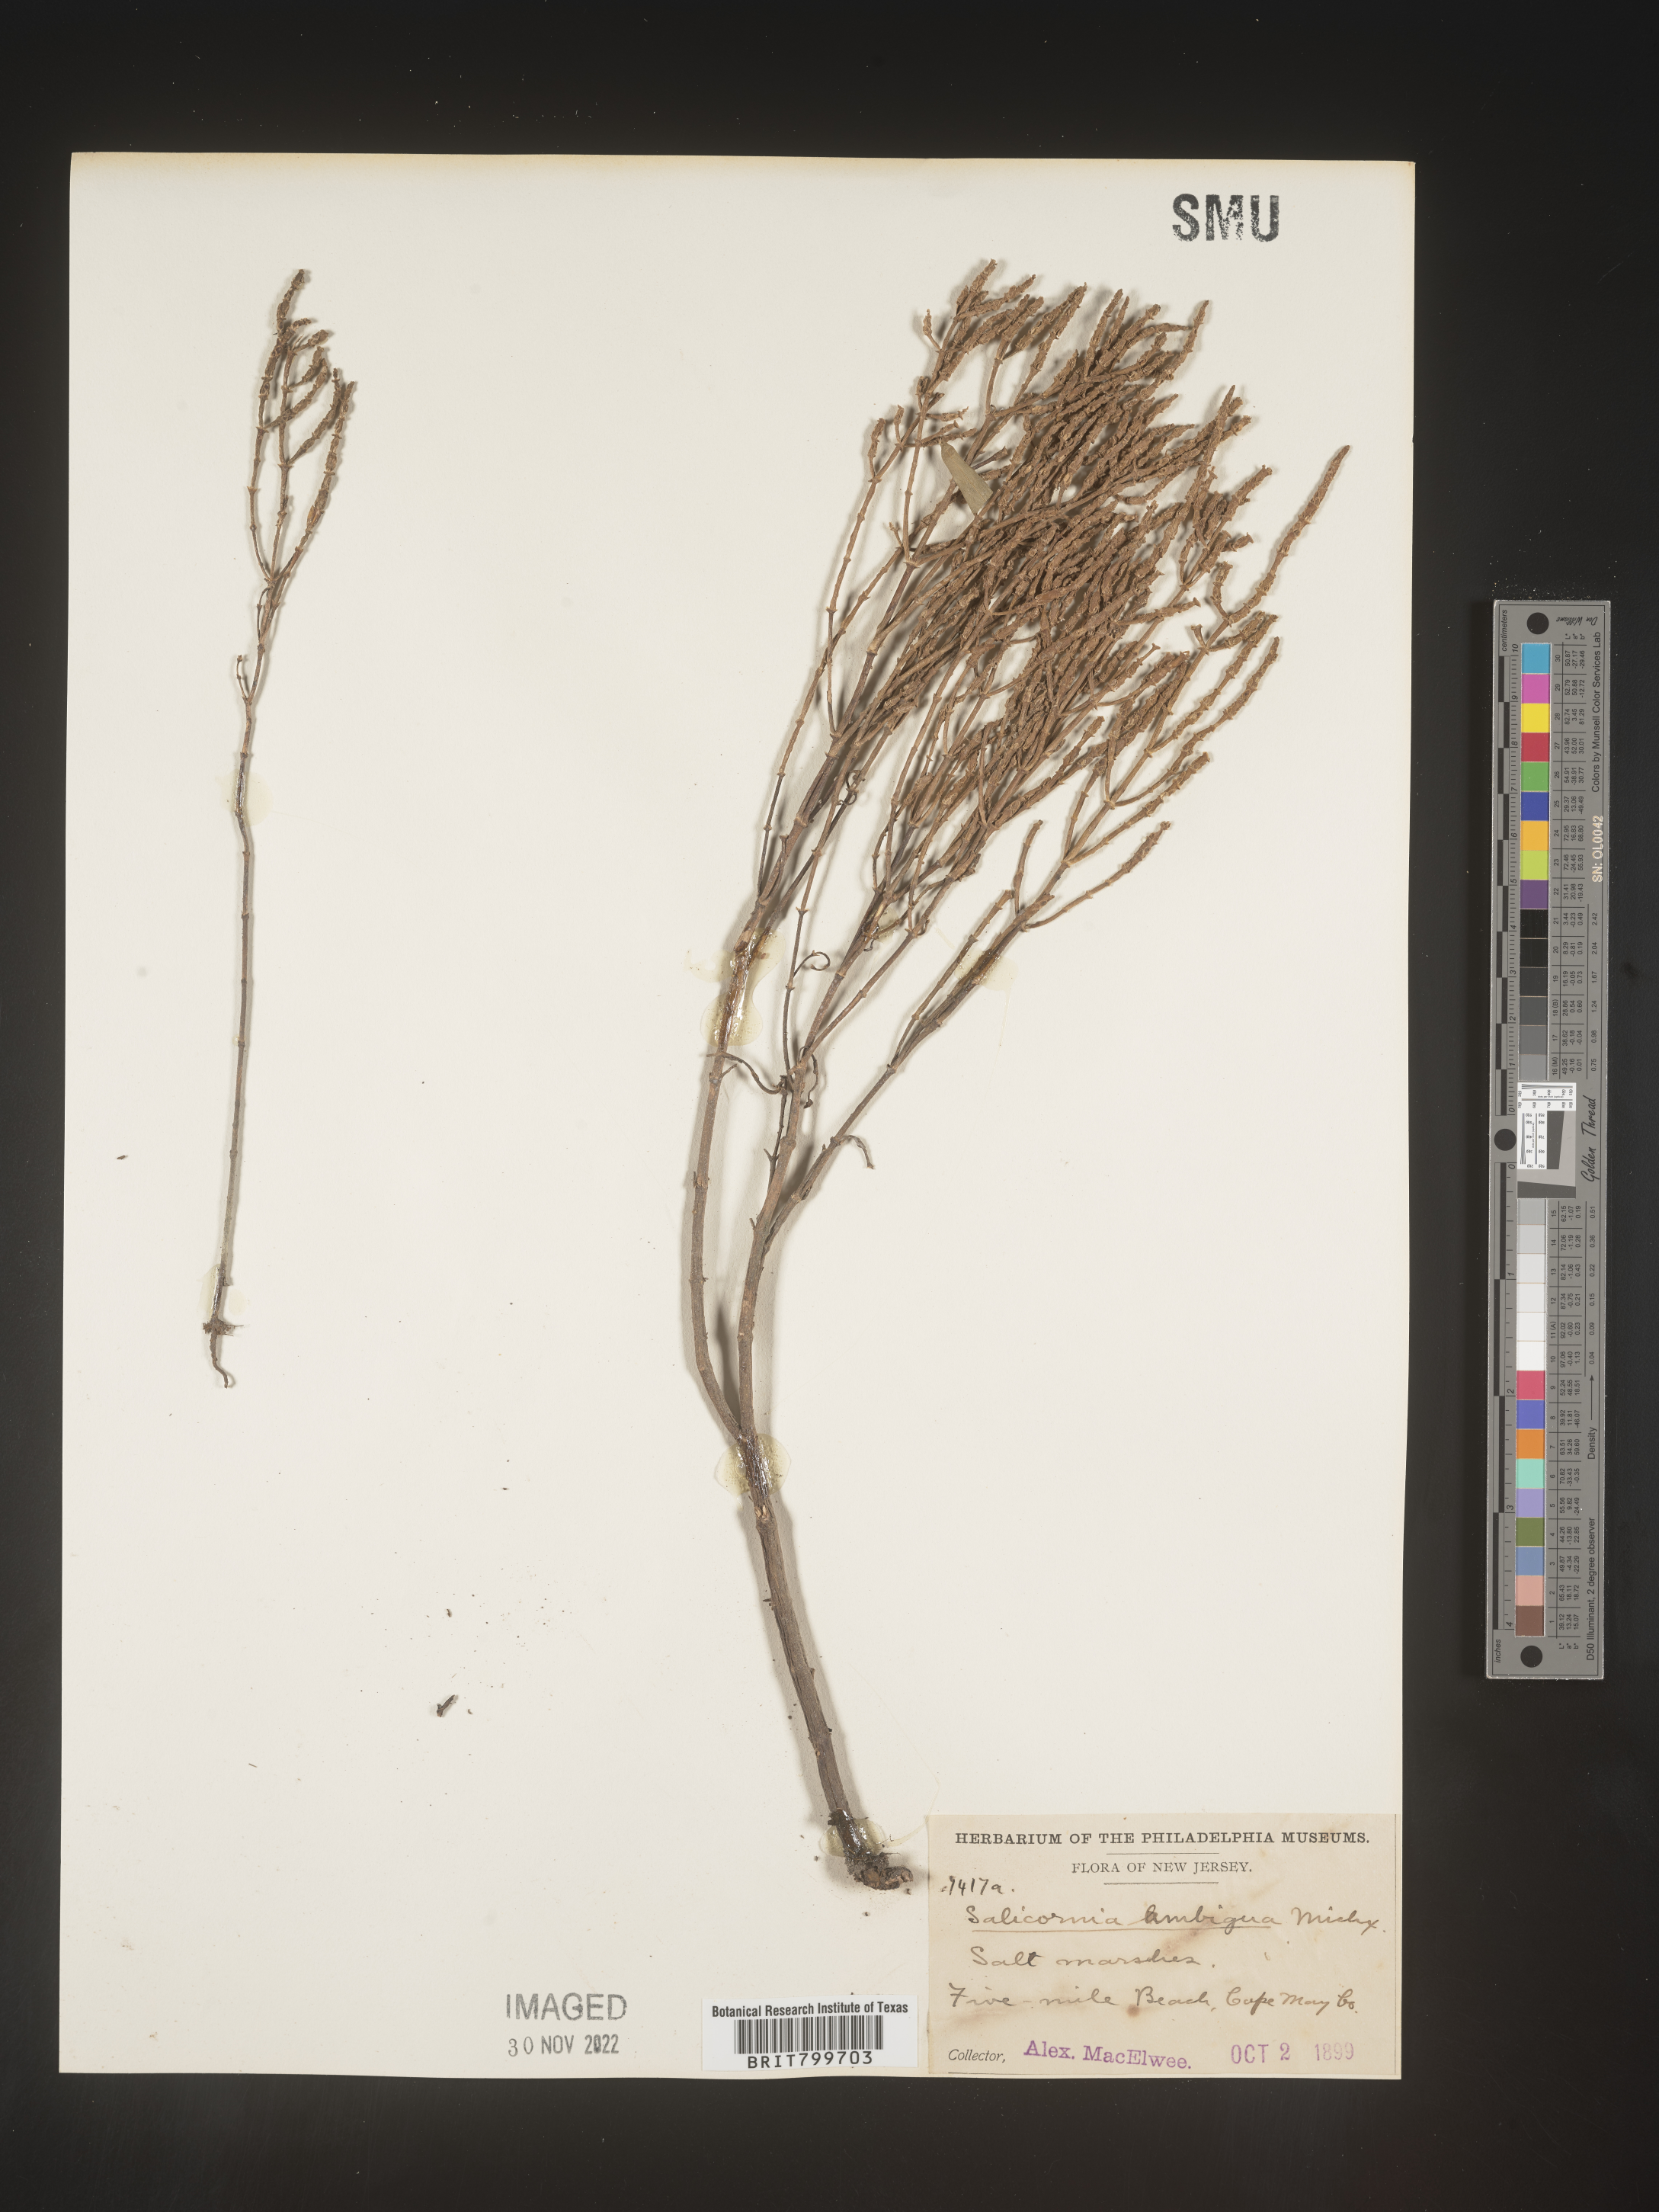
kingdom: Plantae
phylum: Tracheophyta
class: Magnoliopsida
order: Caryophyllales
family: Amaranthaceae
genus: Salicornia
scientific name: Salicornia virginica
